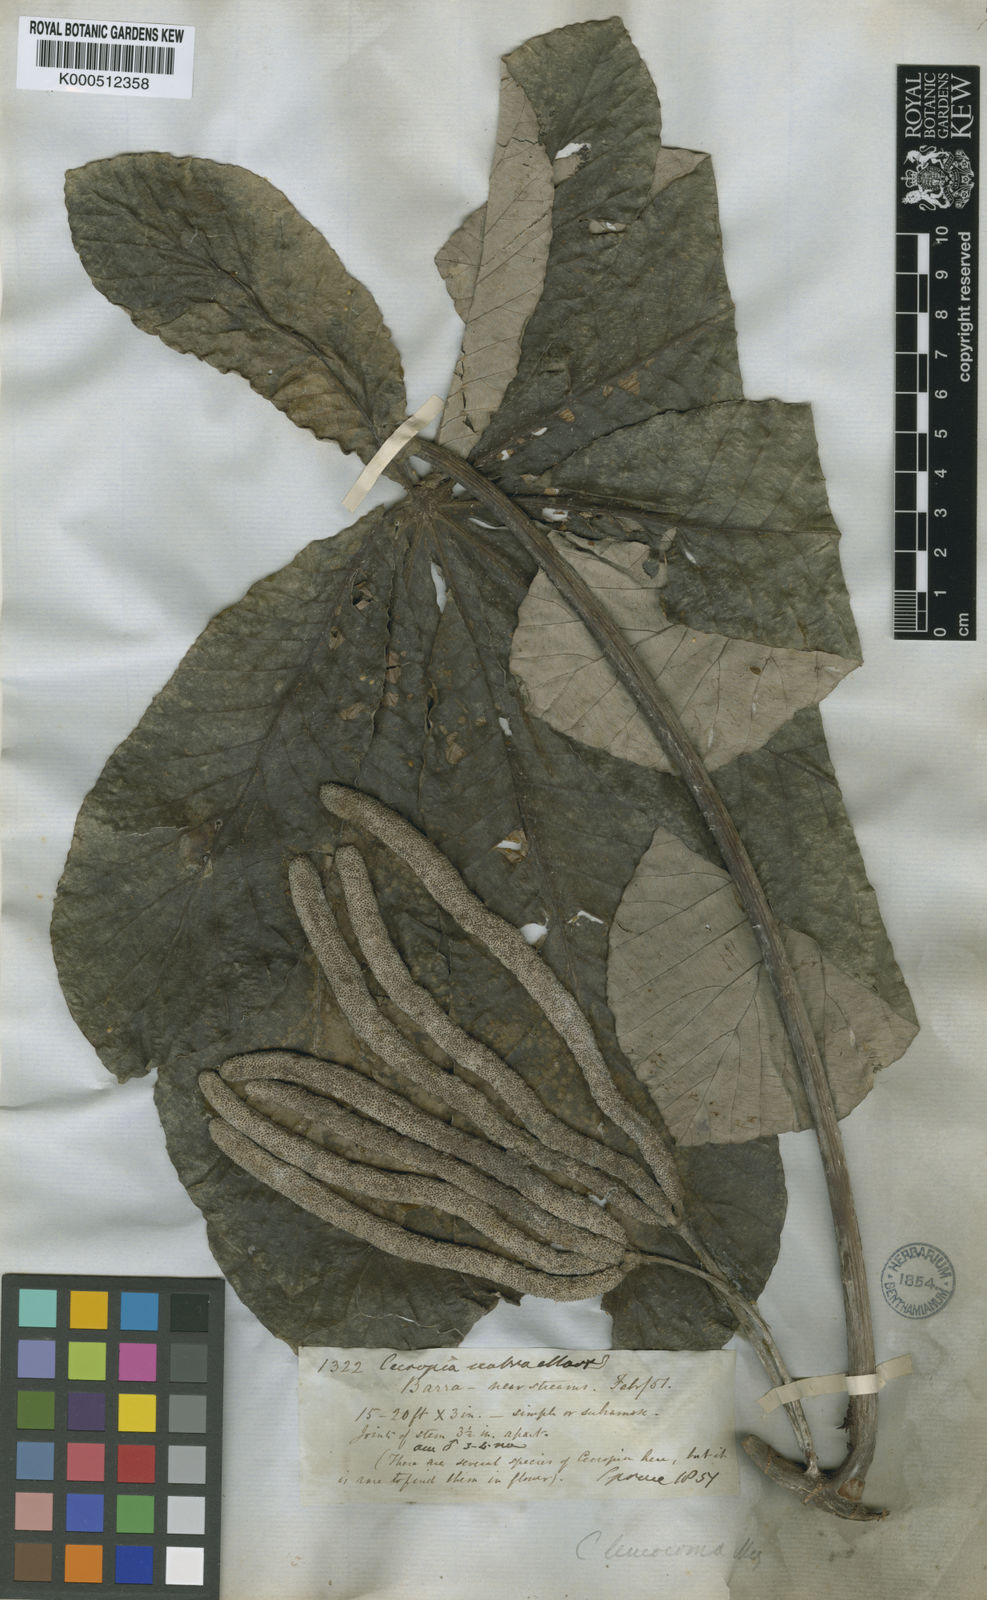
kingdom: Plantae
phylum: Tracheophyta
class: Magnoliopsida
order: Rosales
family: Urticaceae
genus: Cecropia
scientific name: Cecropia concolor
